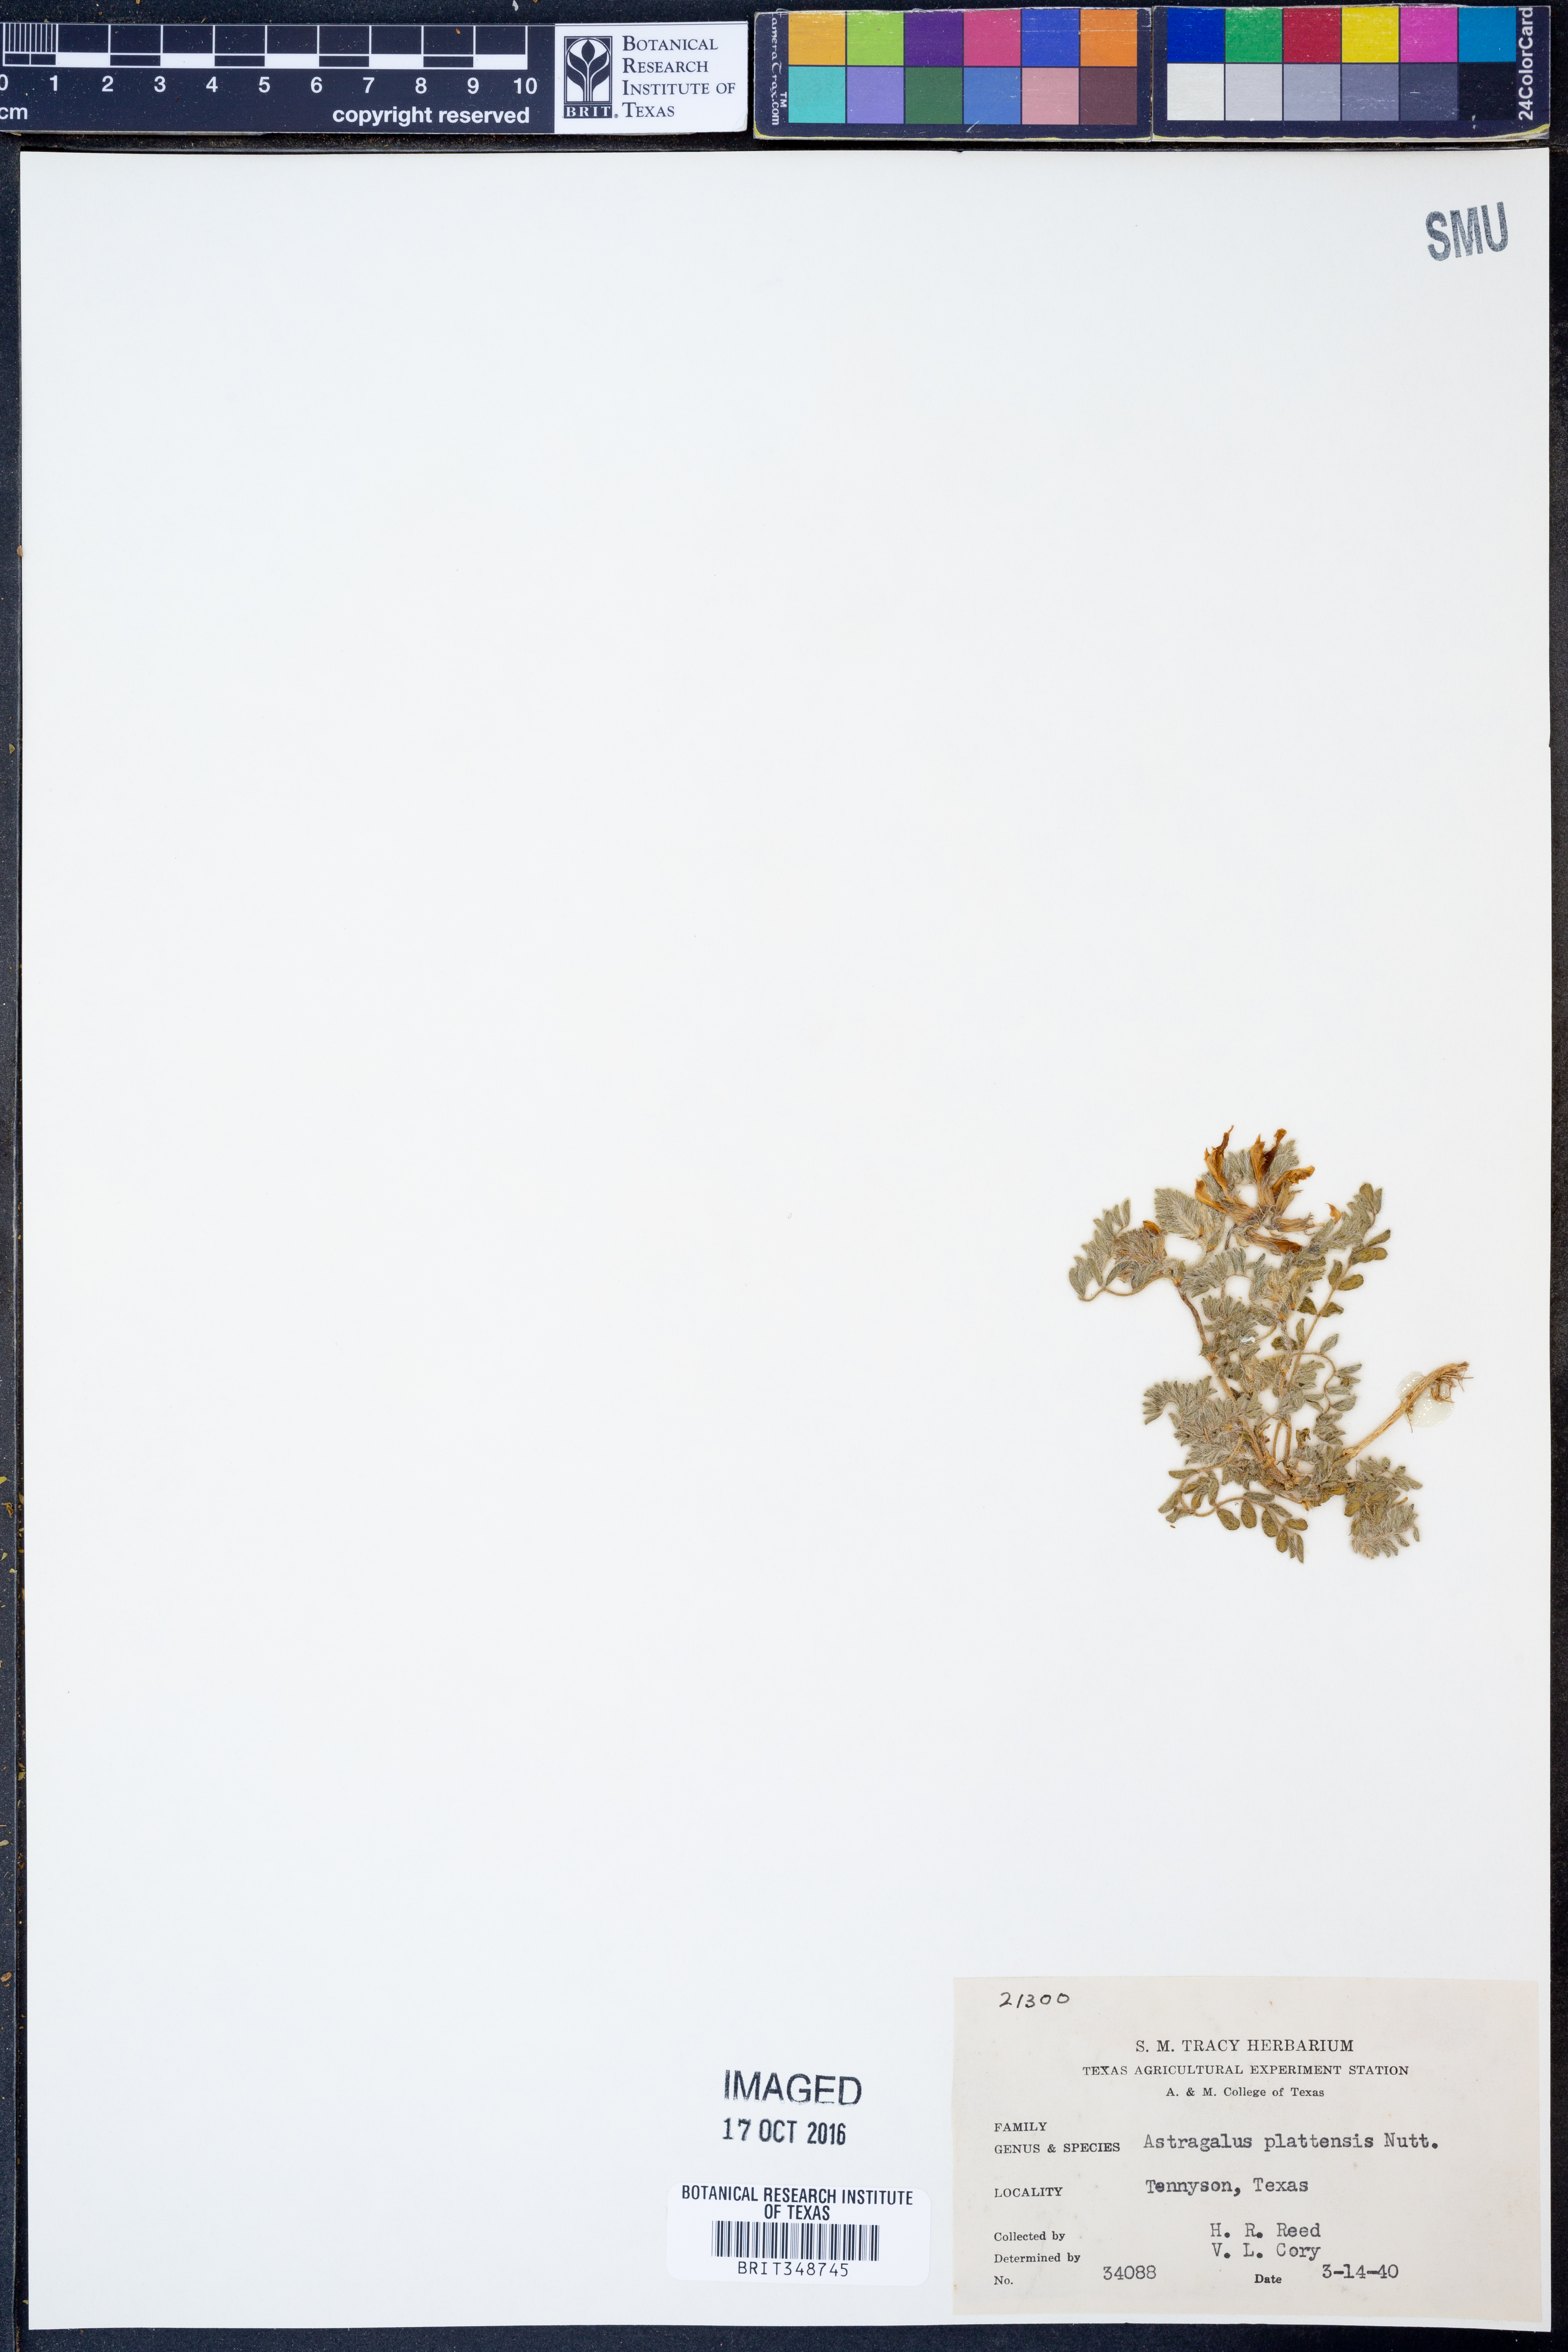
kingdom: Plantae
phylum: Tracheophyta
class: Magnoliopsida
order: Fabales
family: Fabaceae
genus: Astragalus
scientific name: Astragalus plattensis
